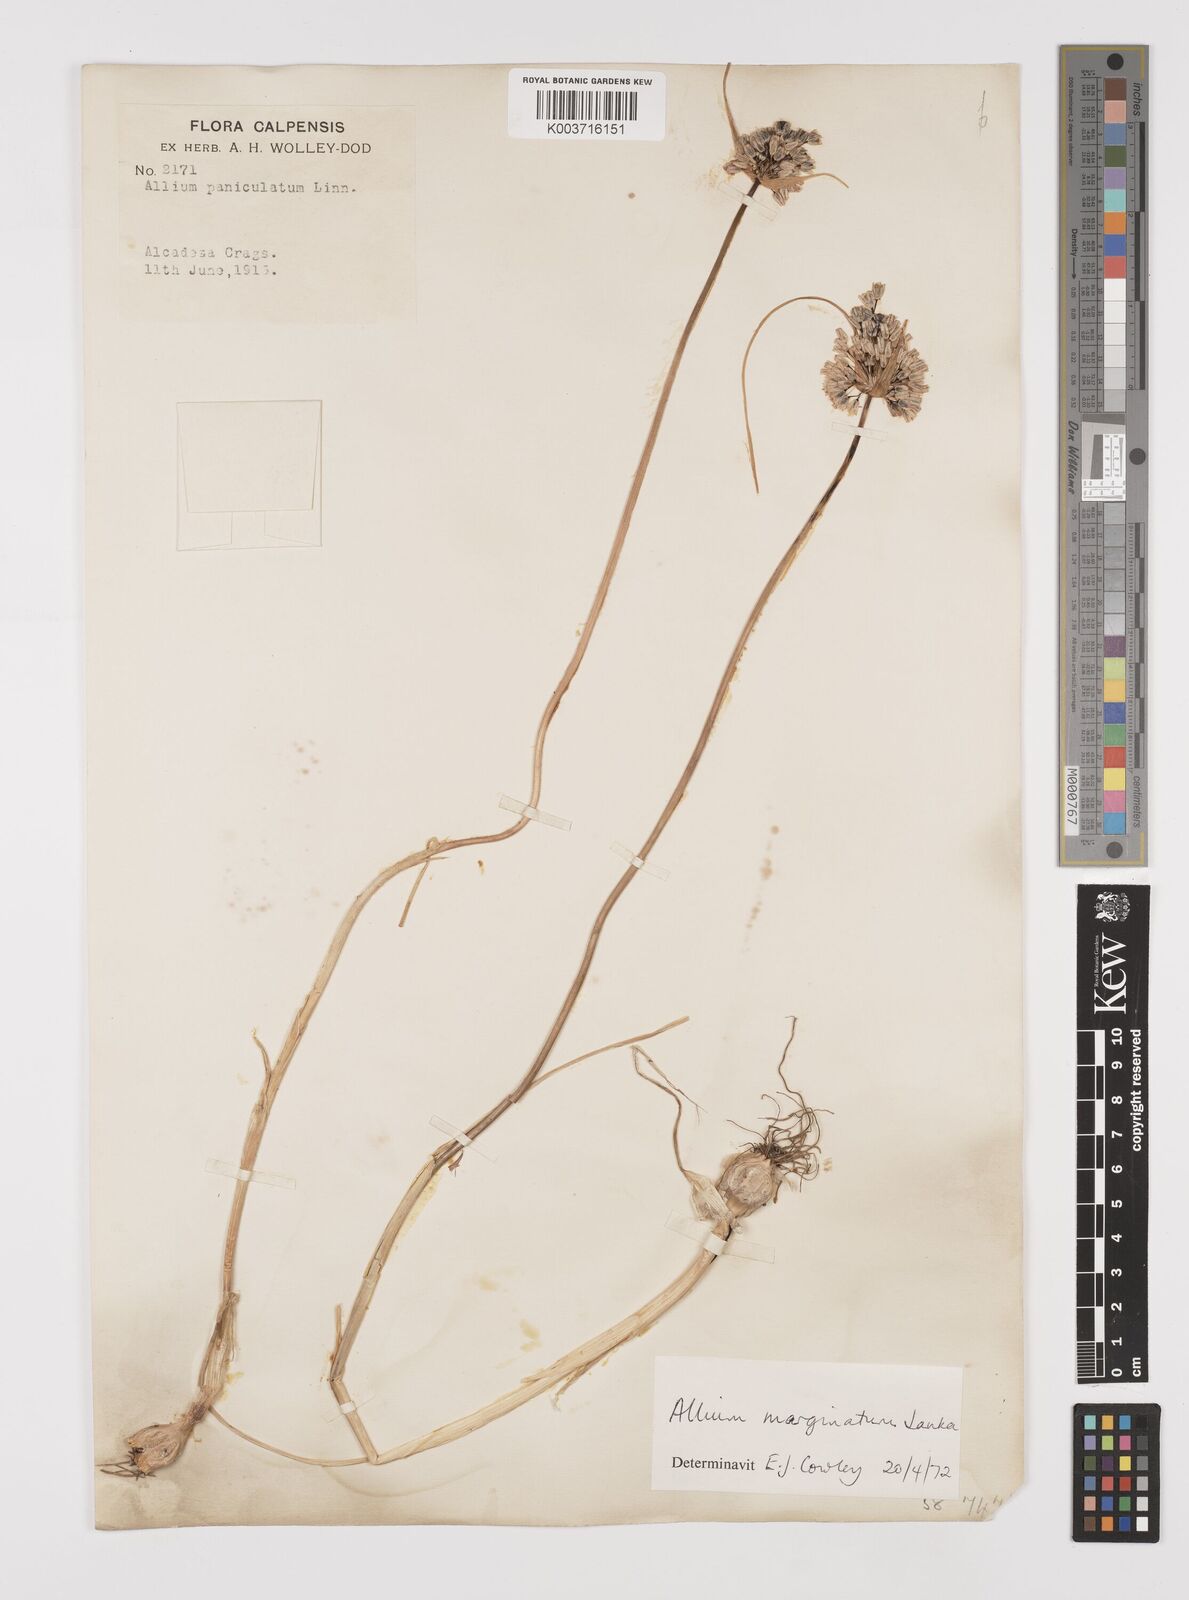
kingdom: Plantae
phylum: Tracheophyta
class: Liliopsida
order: Asparagales
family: Amaryllidaceae
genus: Allium
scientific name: Allium marginatum
